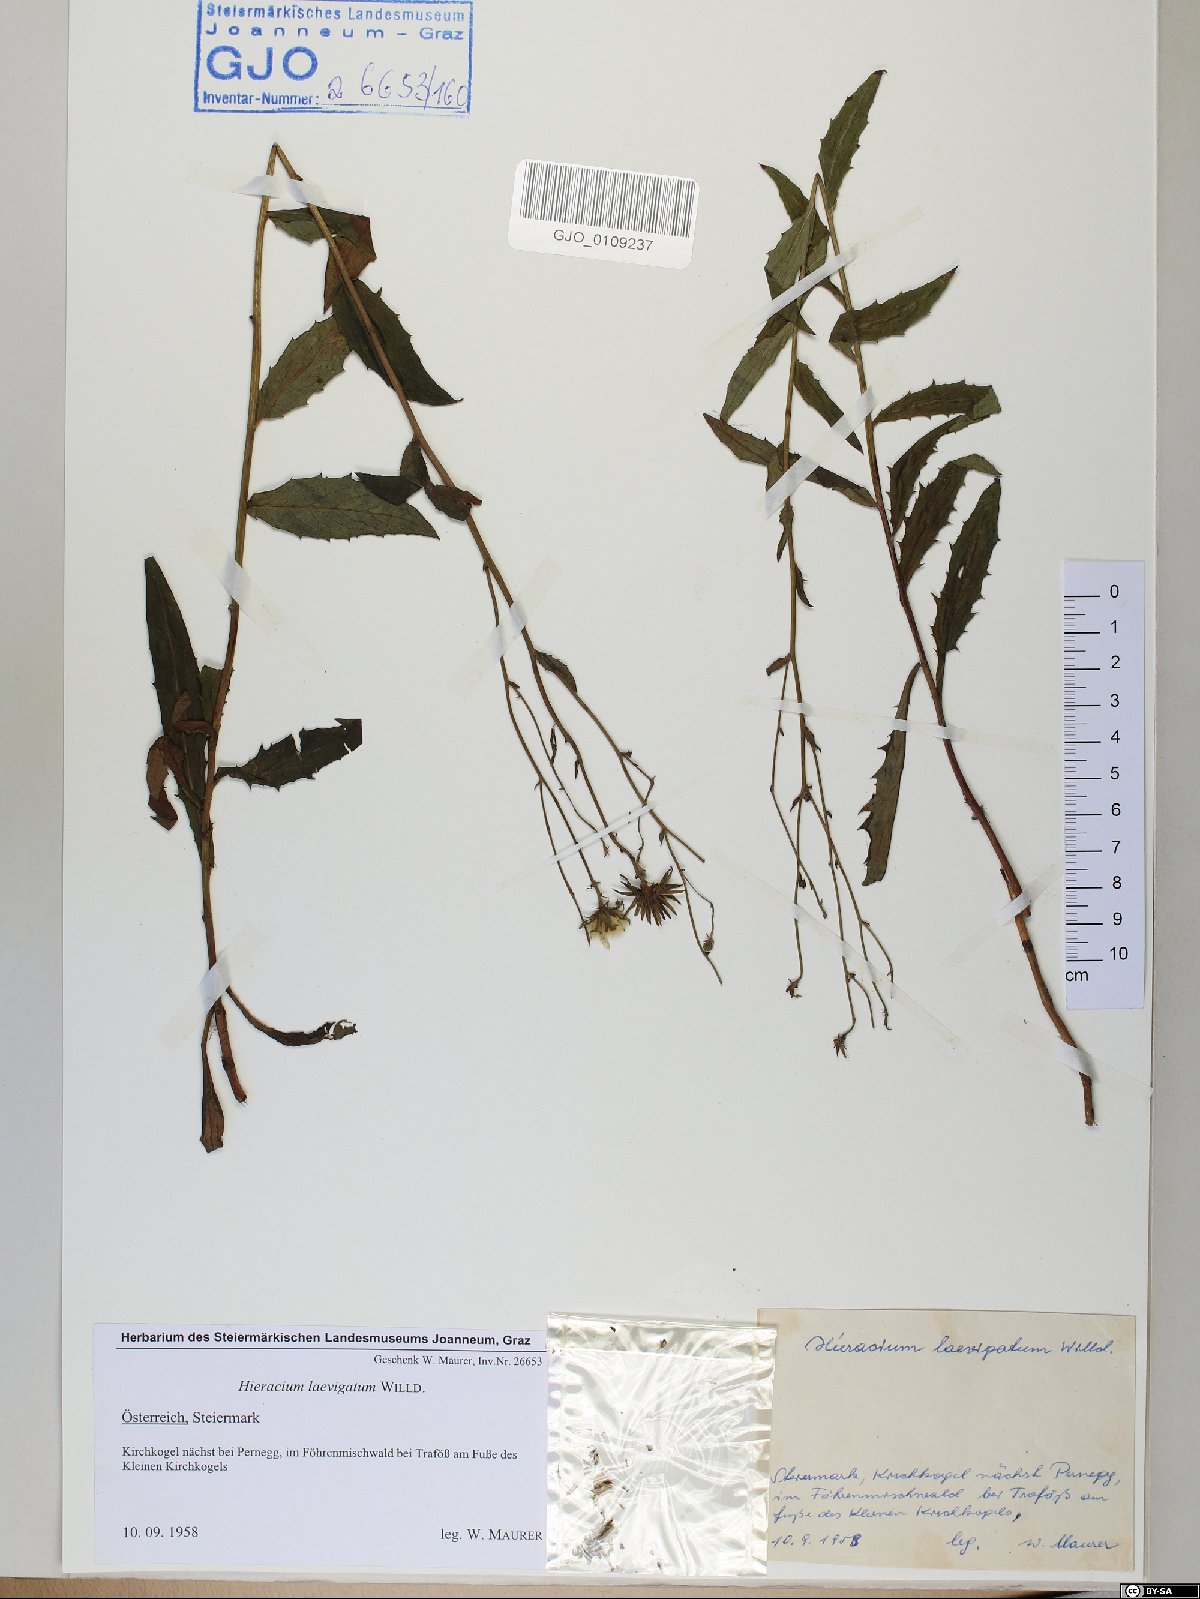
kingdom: Plantae
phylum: Tracheophyta
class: Magnoliopsida
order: Asterales
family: Asteraceae
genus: Hieracium
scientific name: Hieracium laevigatum
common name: Smooth hawkweed
